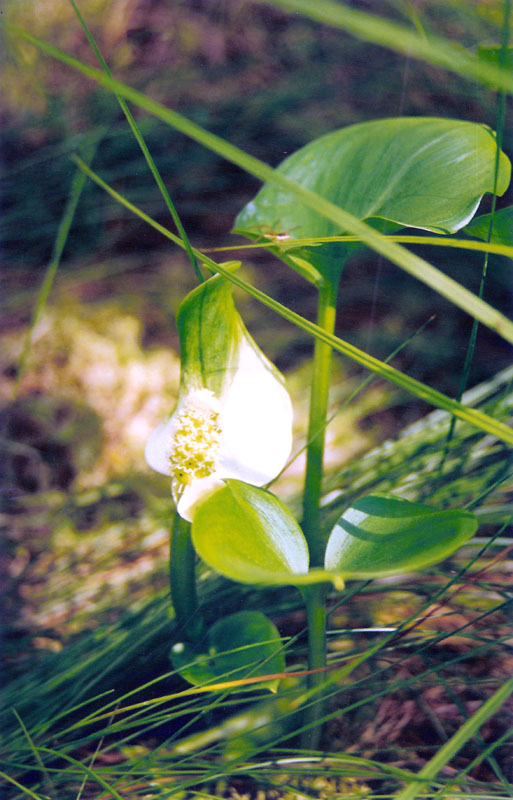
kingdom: Plantae
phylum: Tracheophyta
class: Liliopsida
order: Alismatales
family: Araceae
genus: Calla
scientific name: Calla palustris
